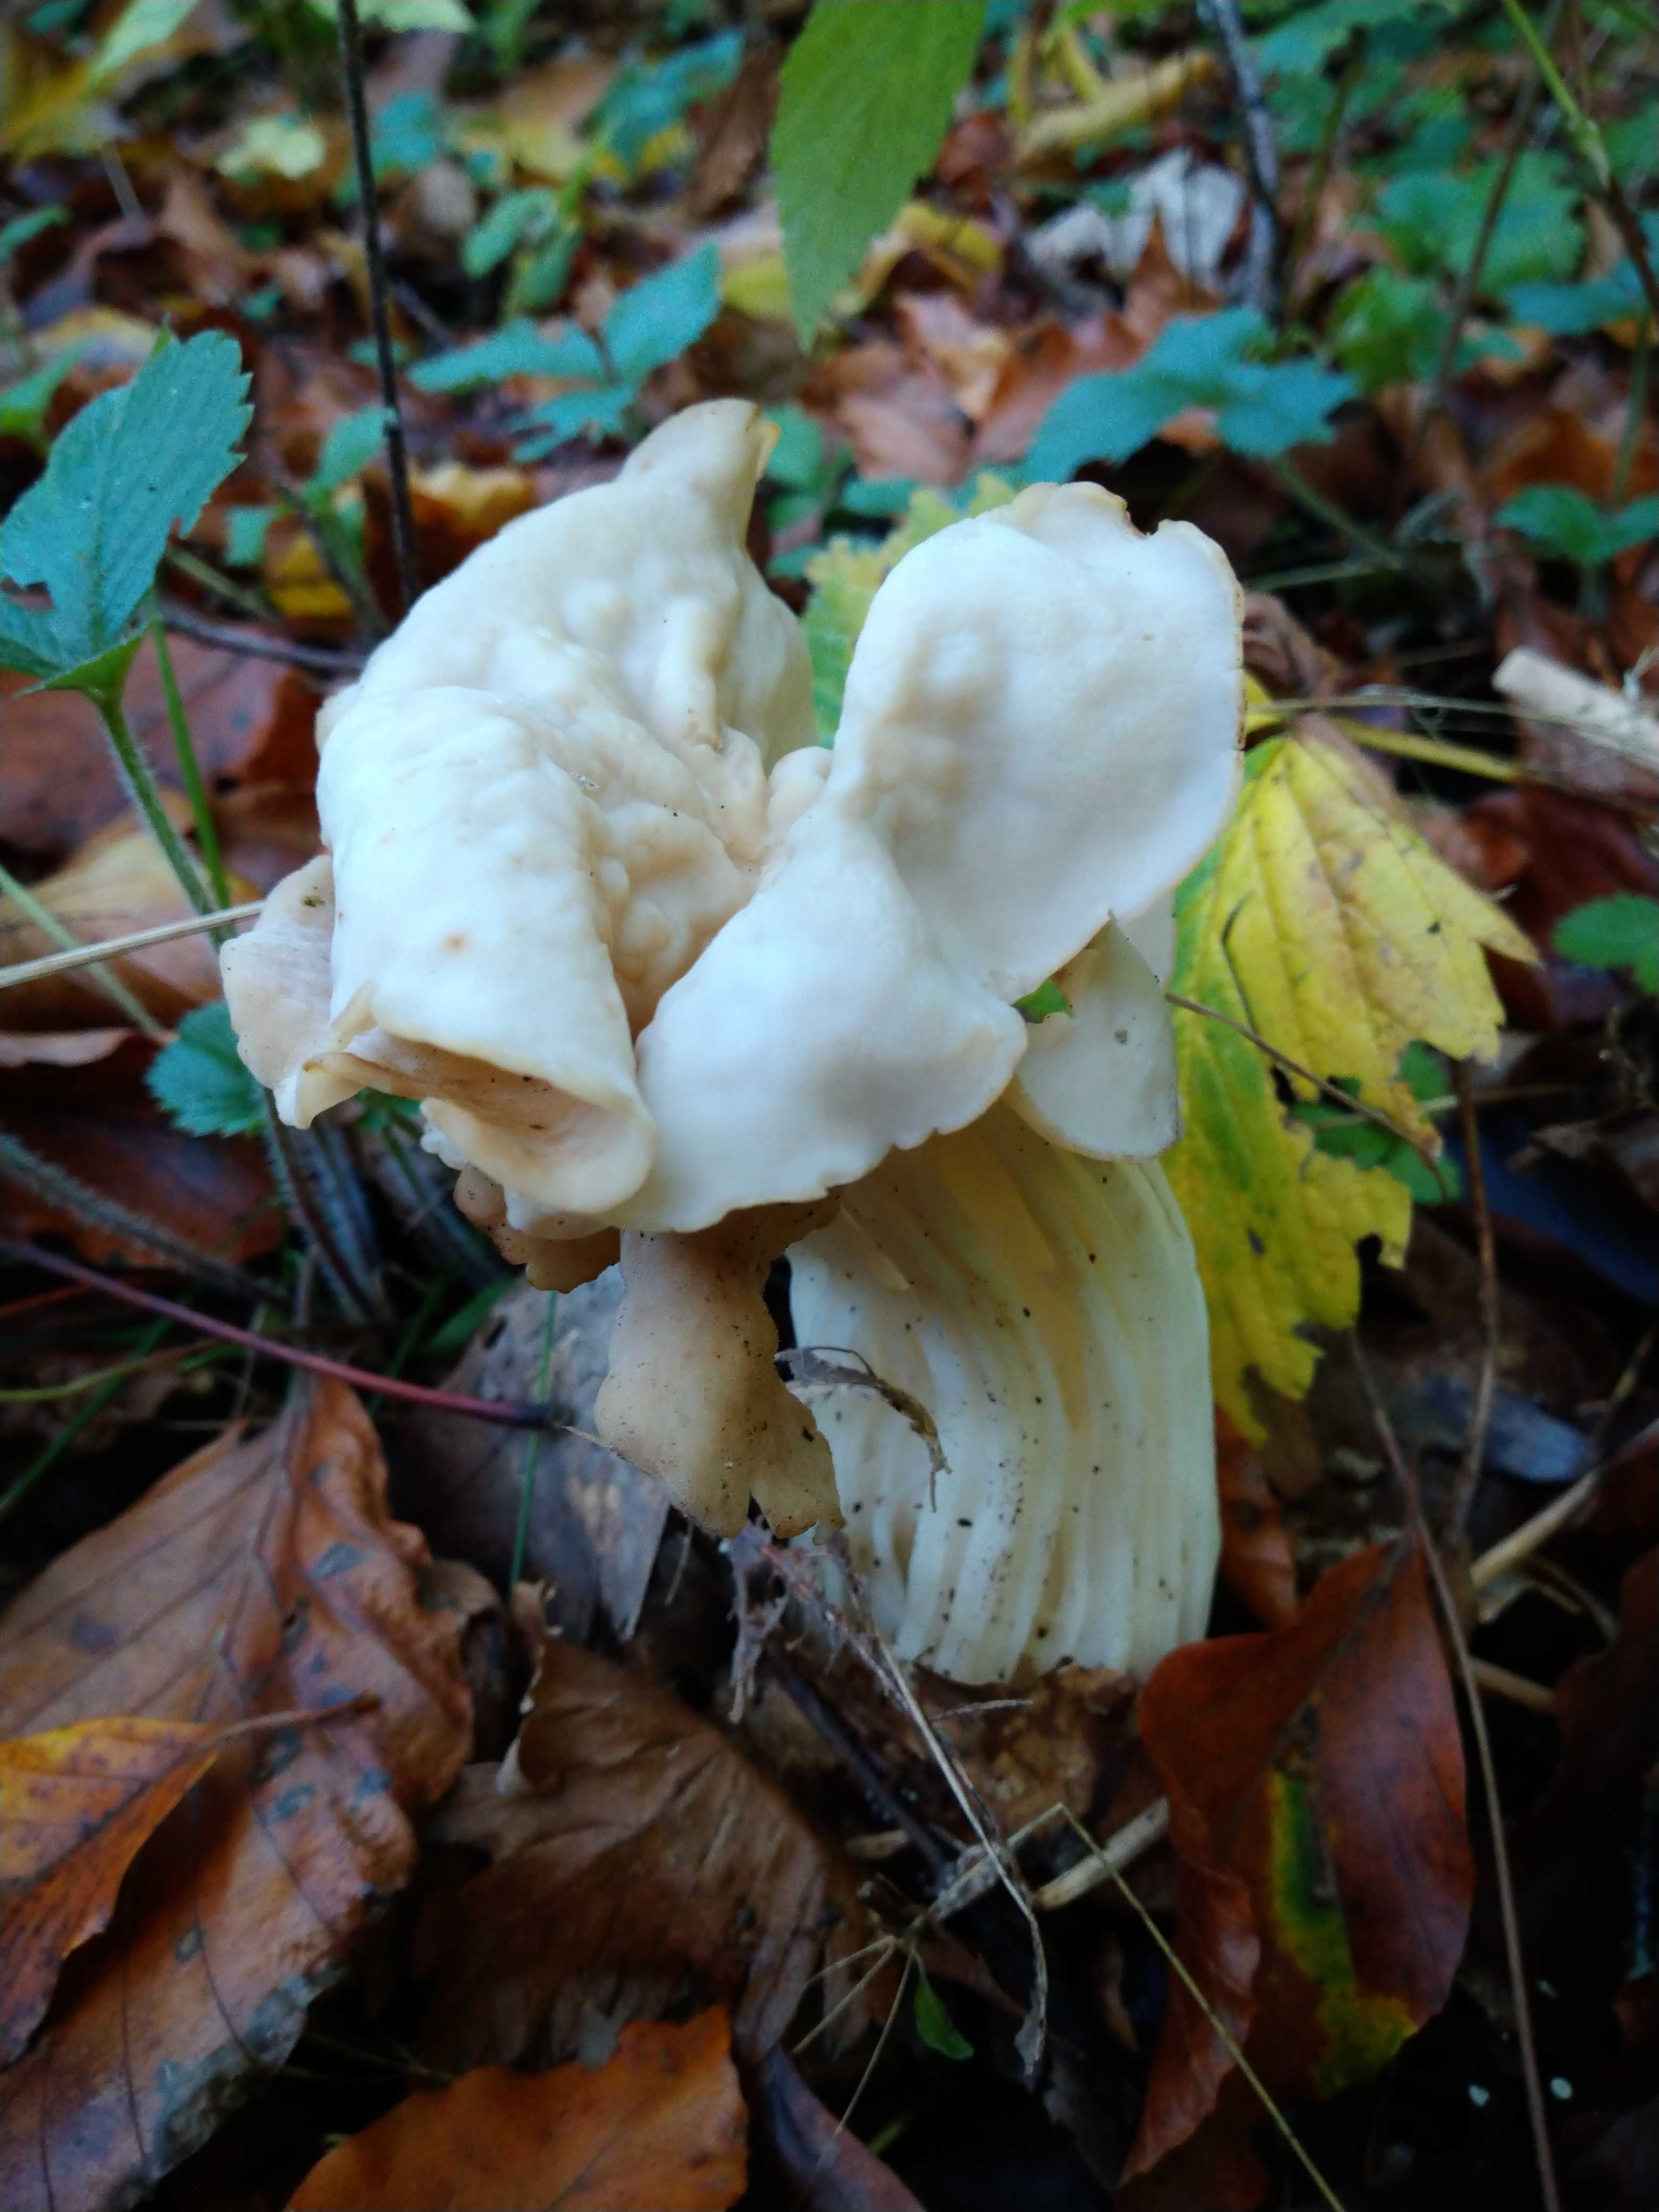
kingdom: Fungi
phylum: Ascomycota
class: Pezizomycetes
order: Pezizales
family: Helvellaceae
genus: Helvella
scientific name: Helvella crispa
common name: kruset foldhat
